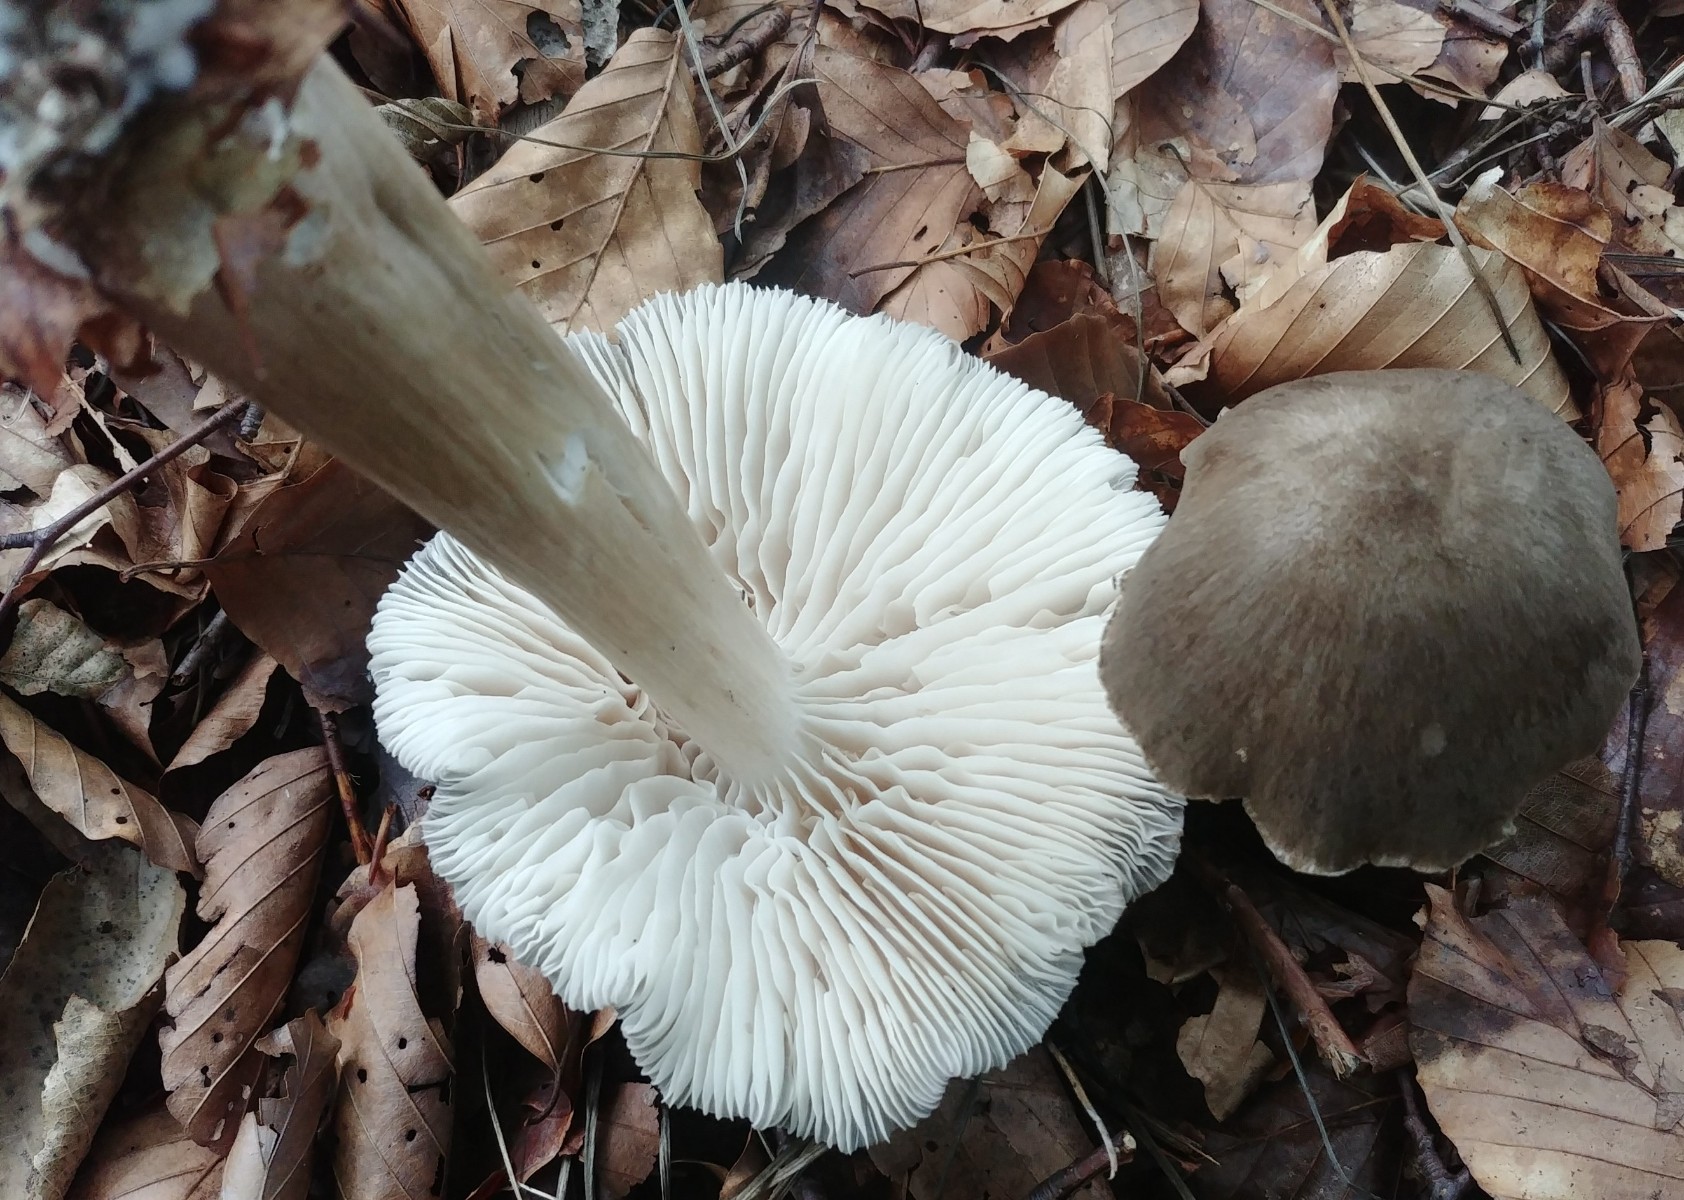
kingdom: Fungi
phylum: Basidiomycota
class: Agaricomycetes
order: Agaricales
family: Tricholomataceae
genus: Megacollybia
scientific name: Megacollybia platyphylla
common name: bredbladet væbnerhat
